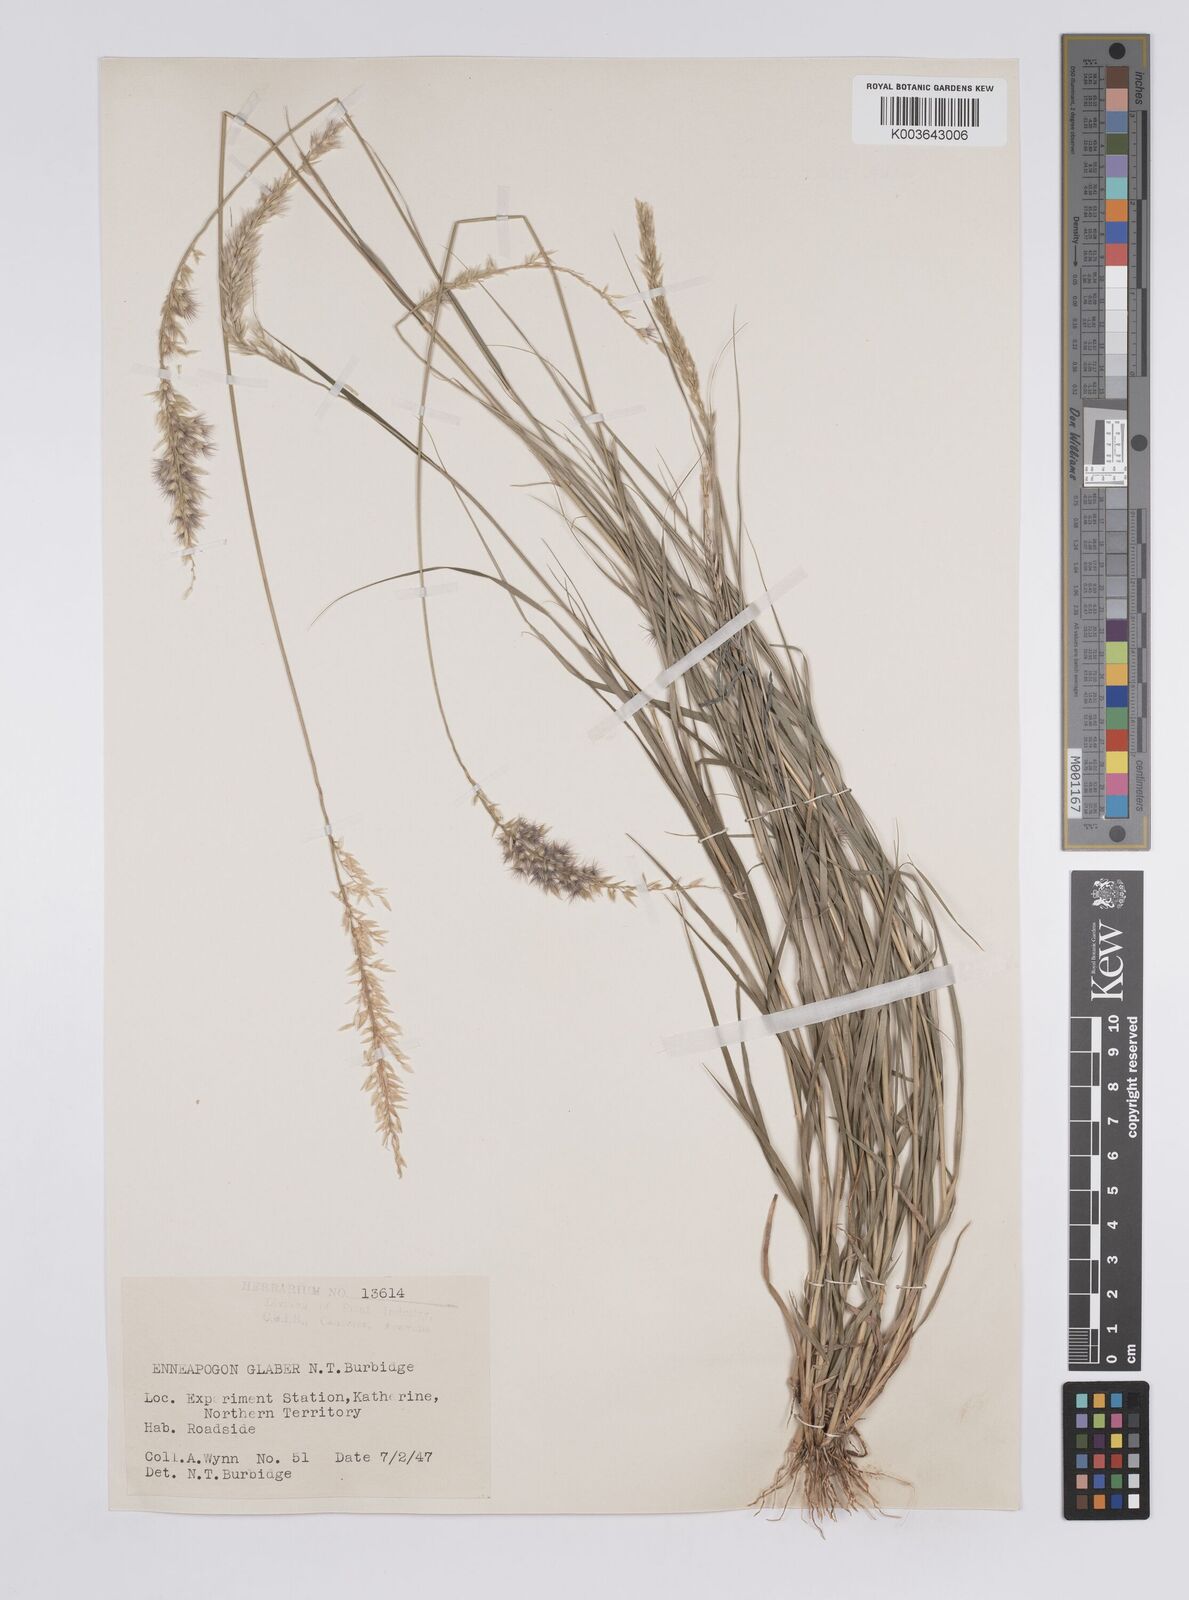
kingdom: Plantae
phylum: Tracheophyta
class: Liliopsida
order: Poales
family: Poaceae
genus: Enneapogon
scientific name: Enneapogon purpurascens
